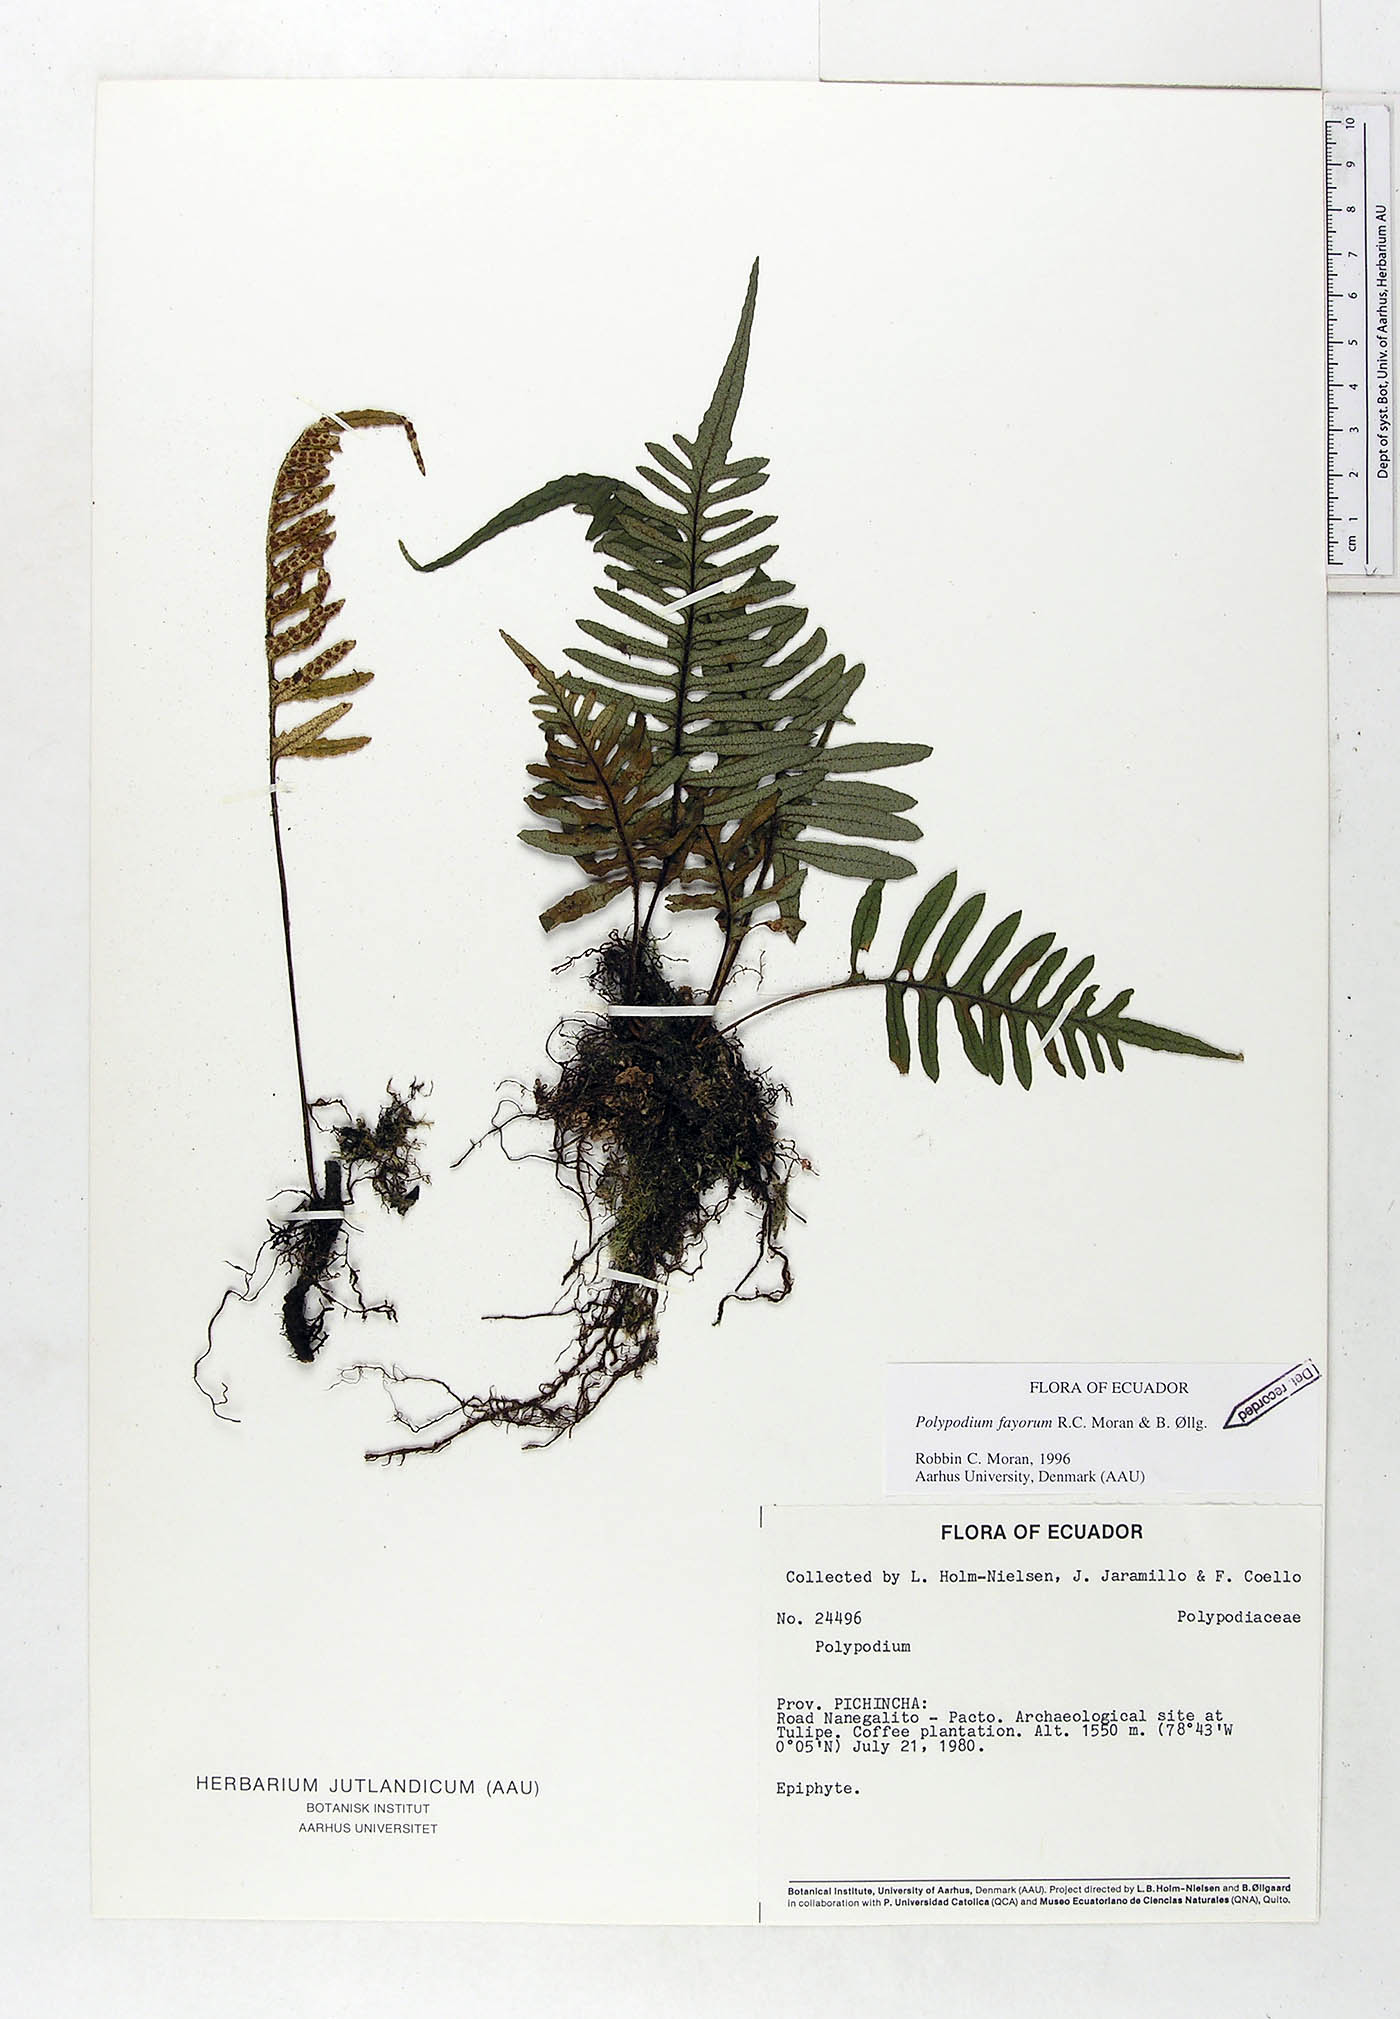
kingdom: Plantae
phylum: Tracheophyta
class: Polypodiopsida
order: Polypodiales
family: Polypodiaceae
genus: Pleopeltis
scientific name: Pleopeltis fayorum
